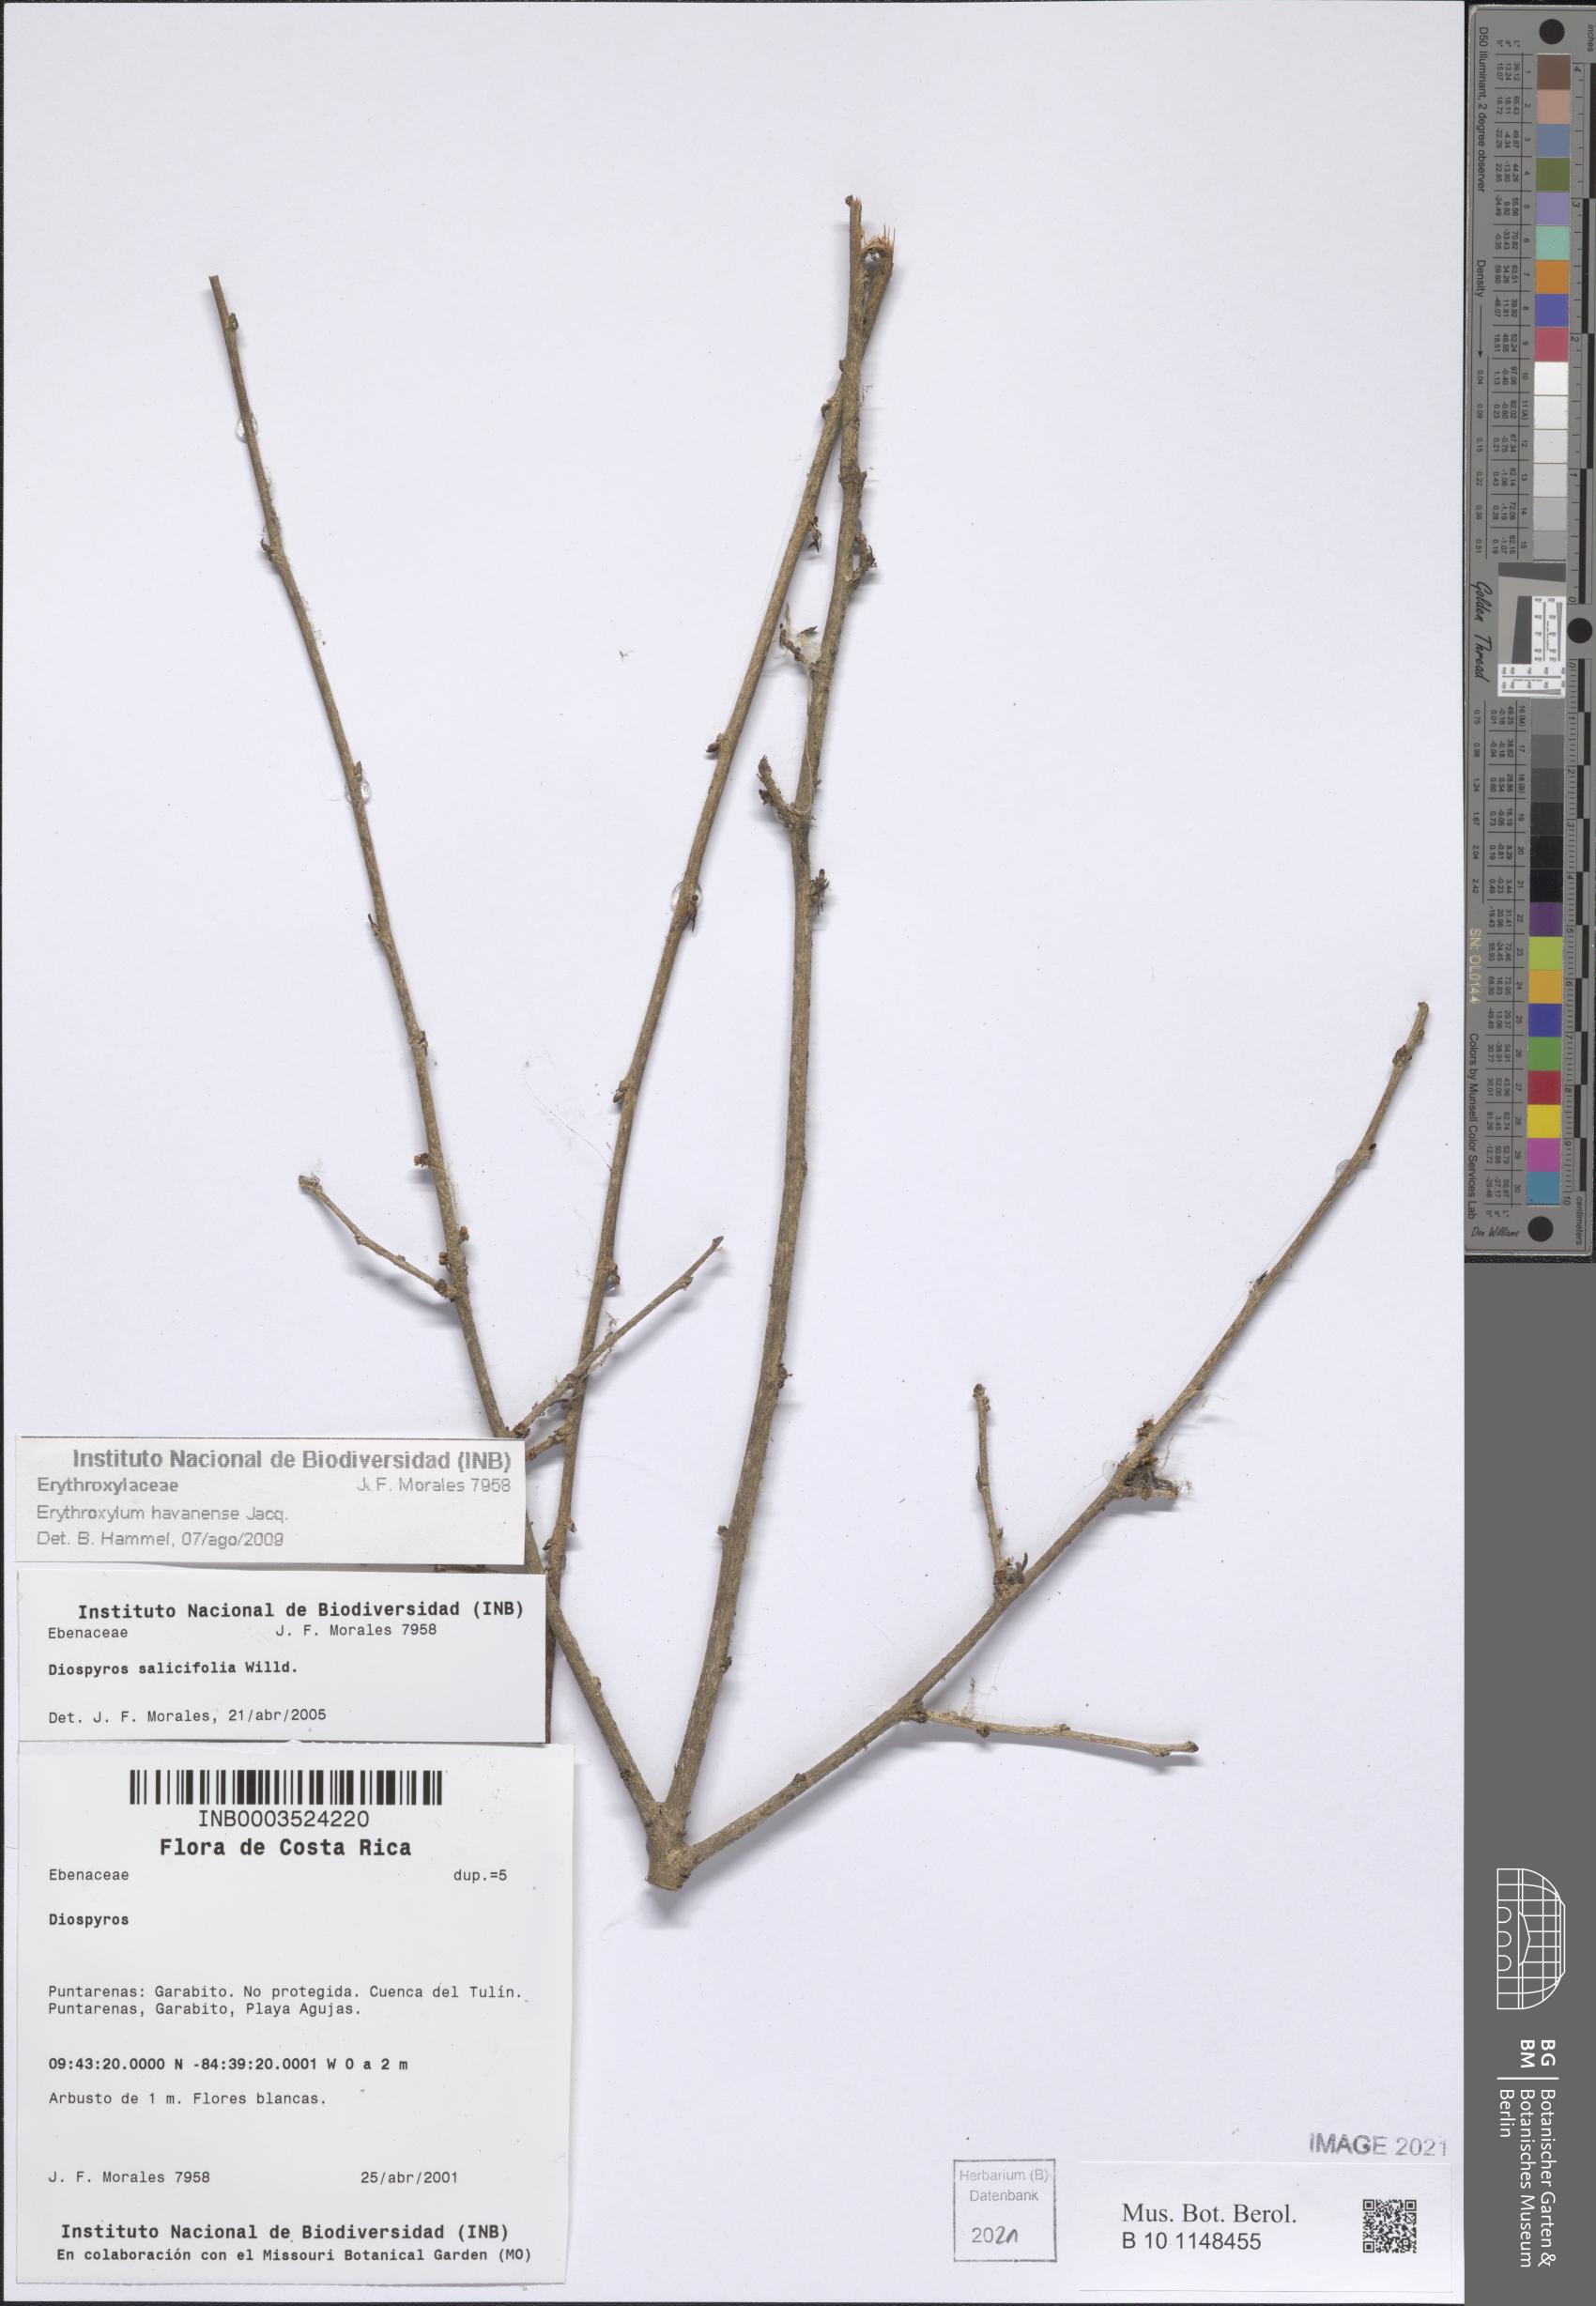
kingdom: Plantae
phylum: Tracheophyta
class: Magnoliopsida
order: Malpighiales
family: Erythroxylaceae
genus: Erythroxylum
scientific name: Erythroxylum squamatum
